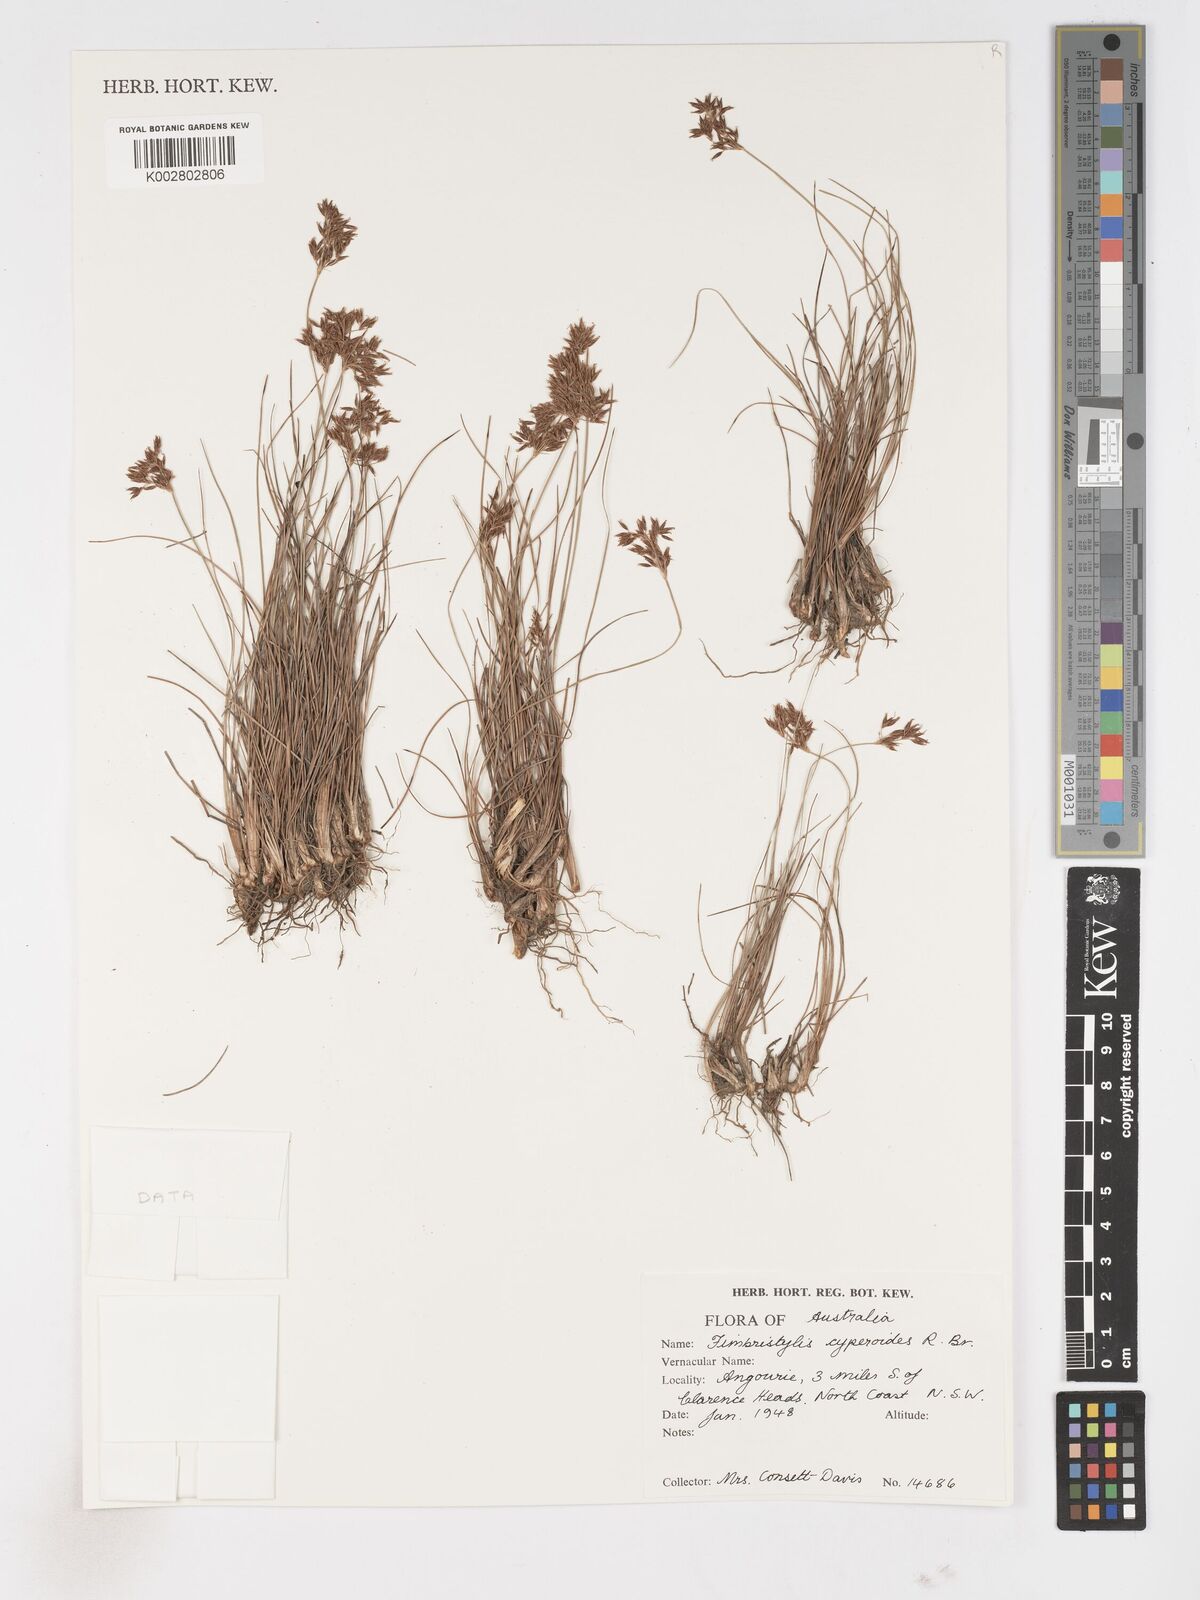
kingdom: Plantae
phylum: Tracheophyta
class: Liliopsida
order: Poales
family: Cyperaceae
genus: Fimbristylis
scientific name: Fimbristylis cinnamometorum
